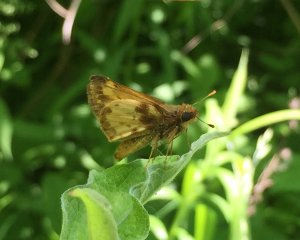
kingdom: Animalia
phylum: Arthropoda
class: Insecta
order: Lepidoptera
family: Hesperiidae
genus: Lon
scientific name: Lon zabulon
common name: Zabulon Skipper
